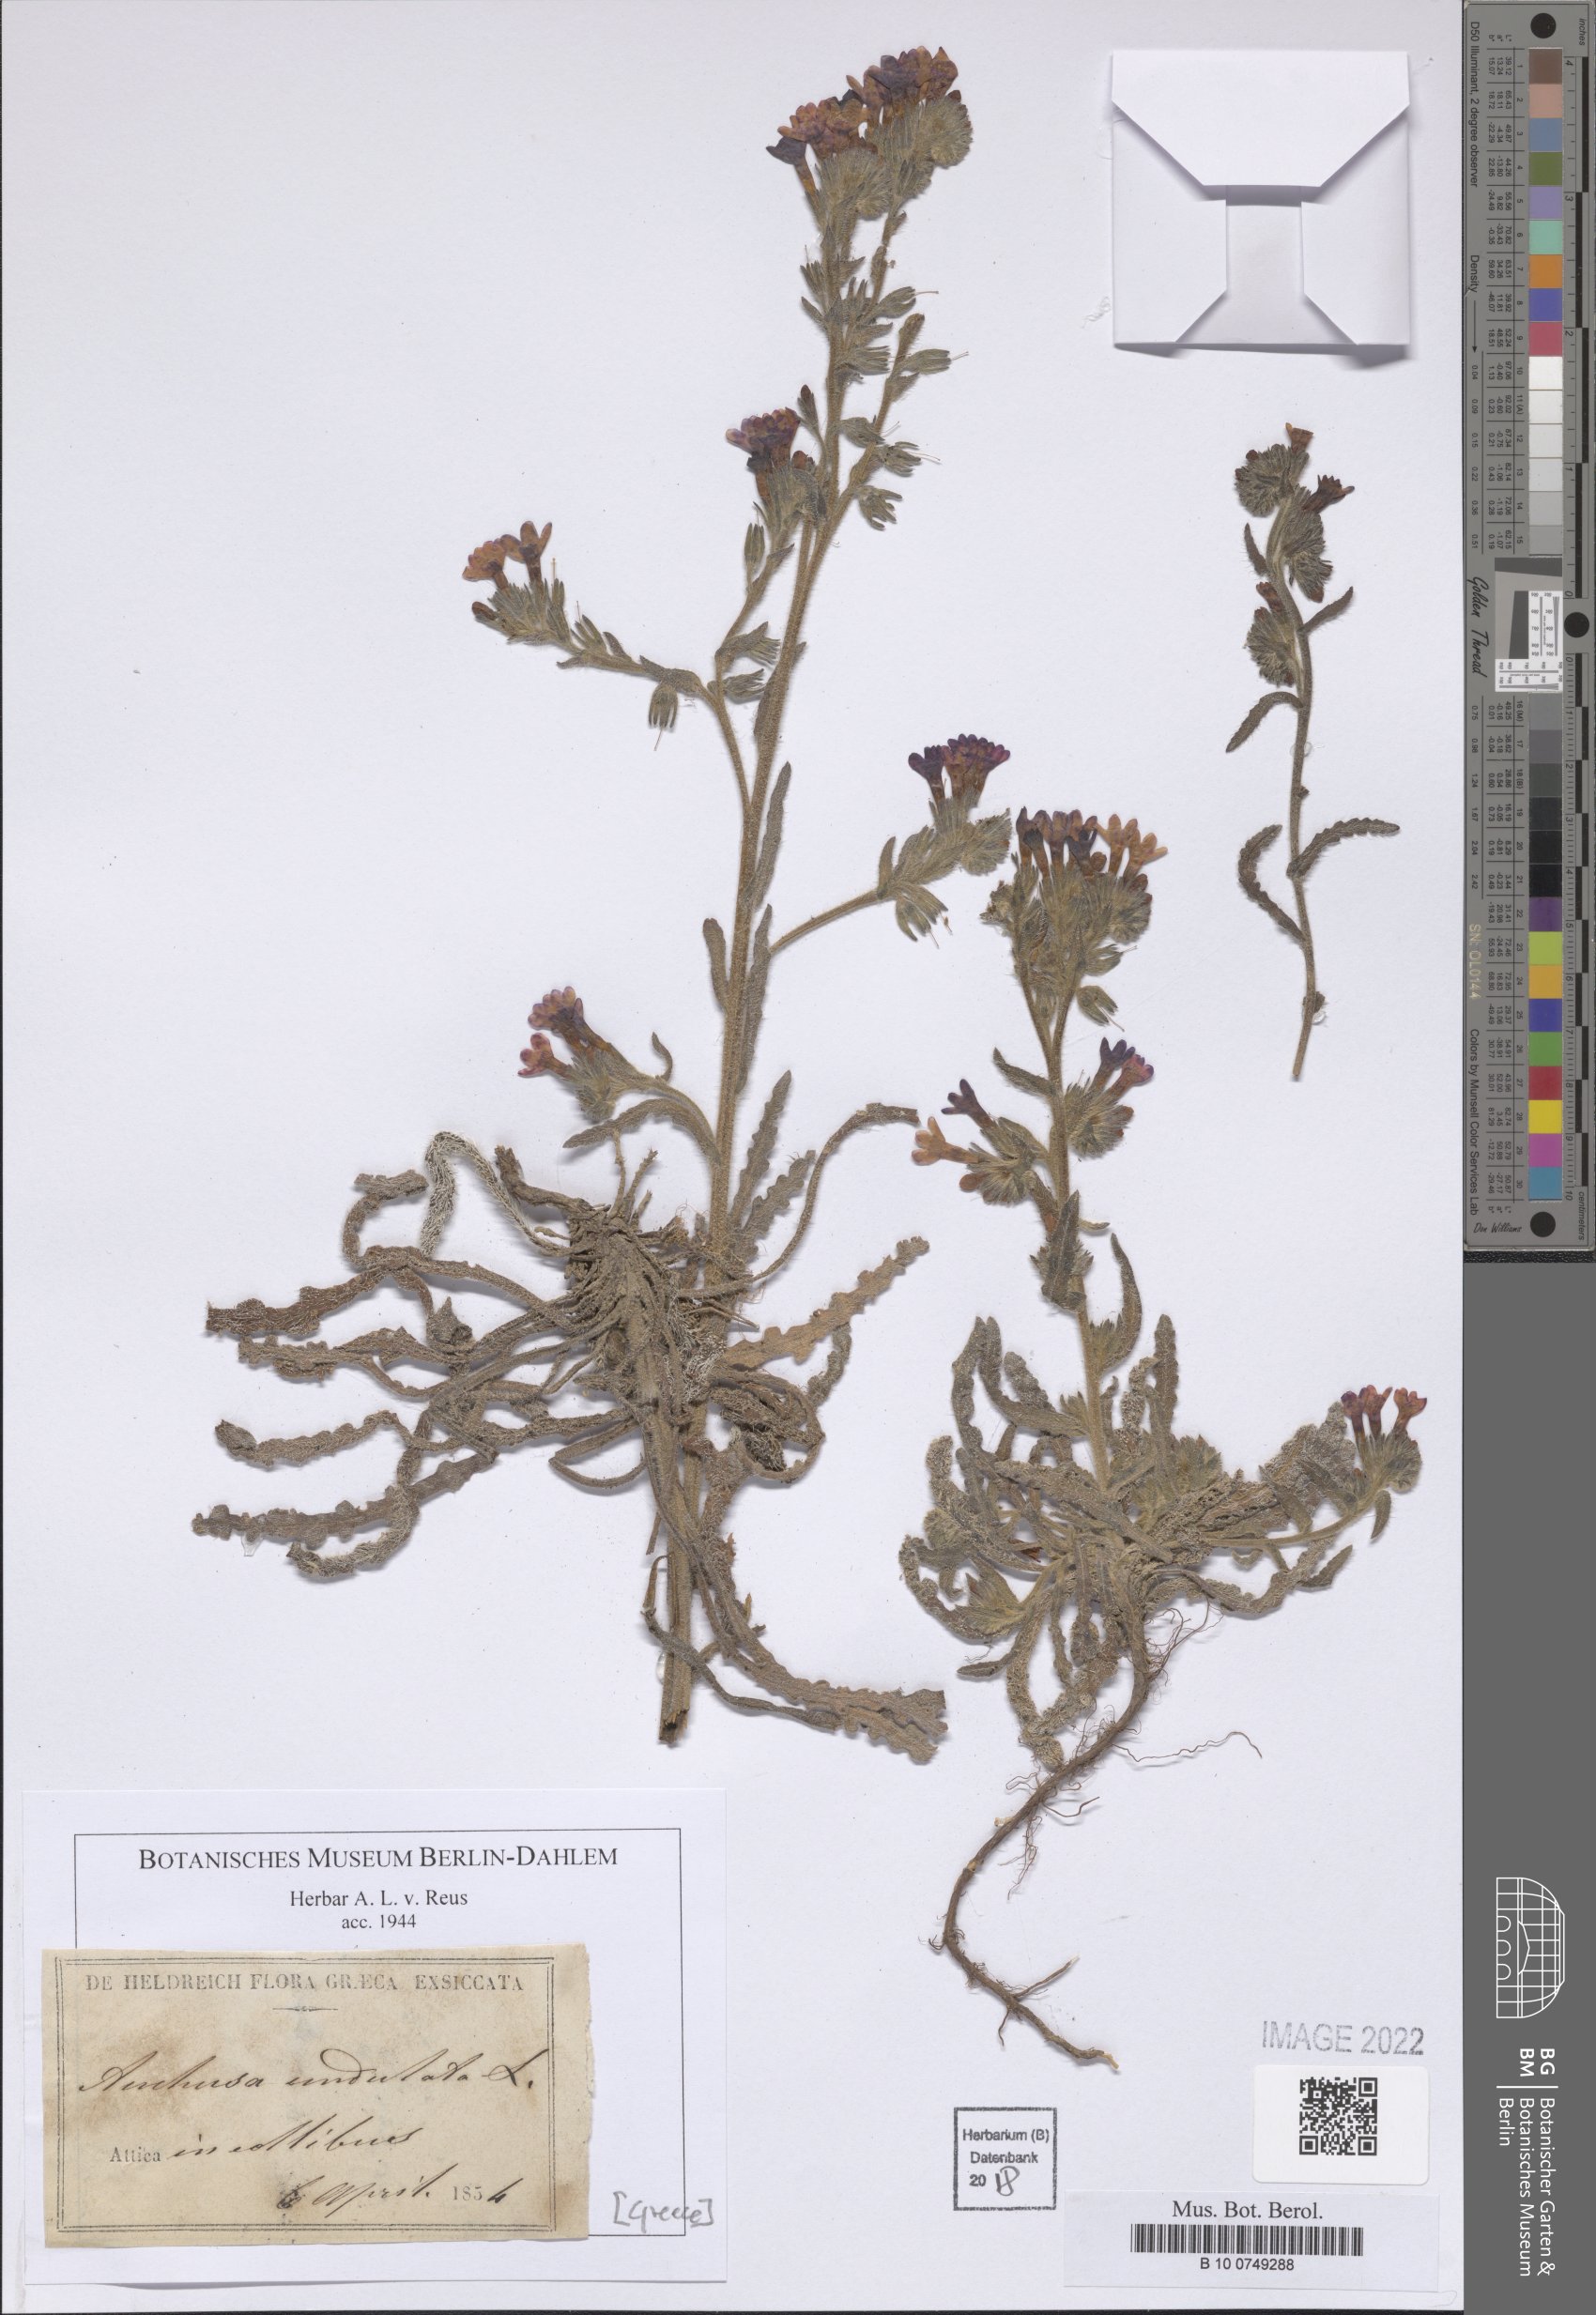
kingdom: Plantae
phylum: Tracheophyta
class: Magnoliopsida
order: Boraginales
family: Boraginaceae
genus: Anchusa
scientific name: Anchusa undulata
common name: Undulate alkanet
